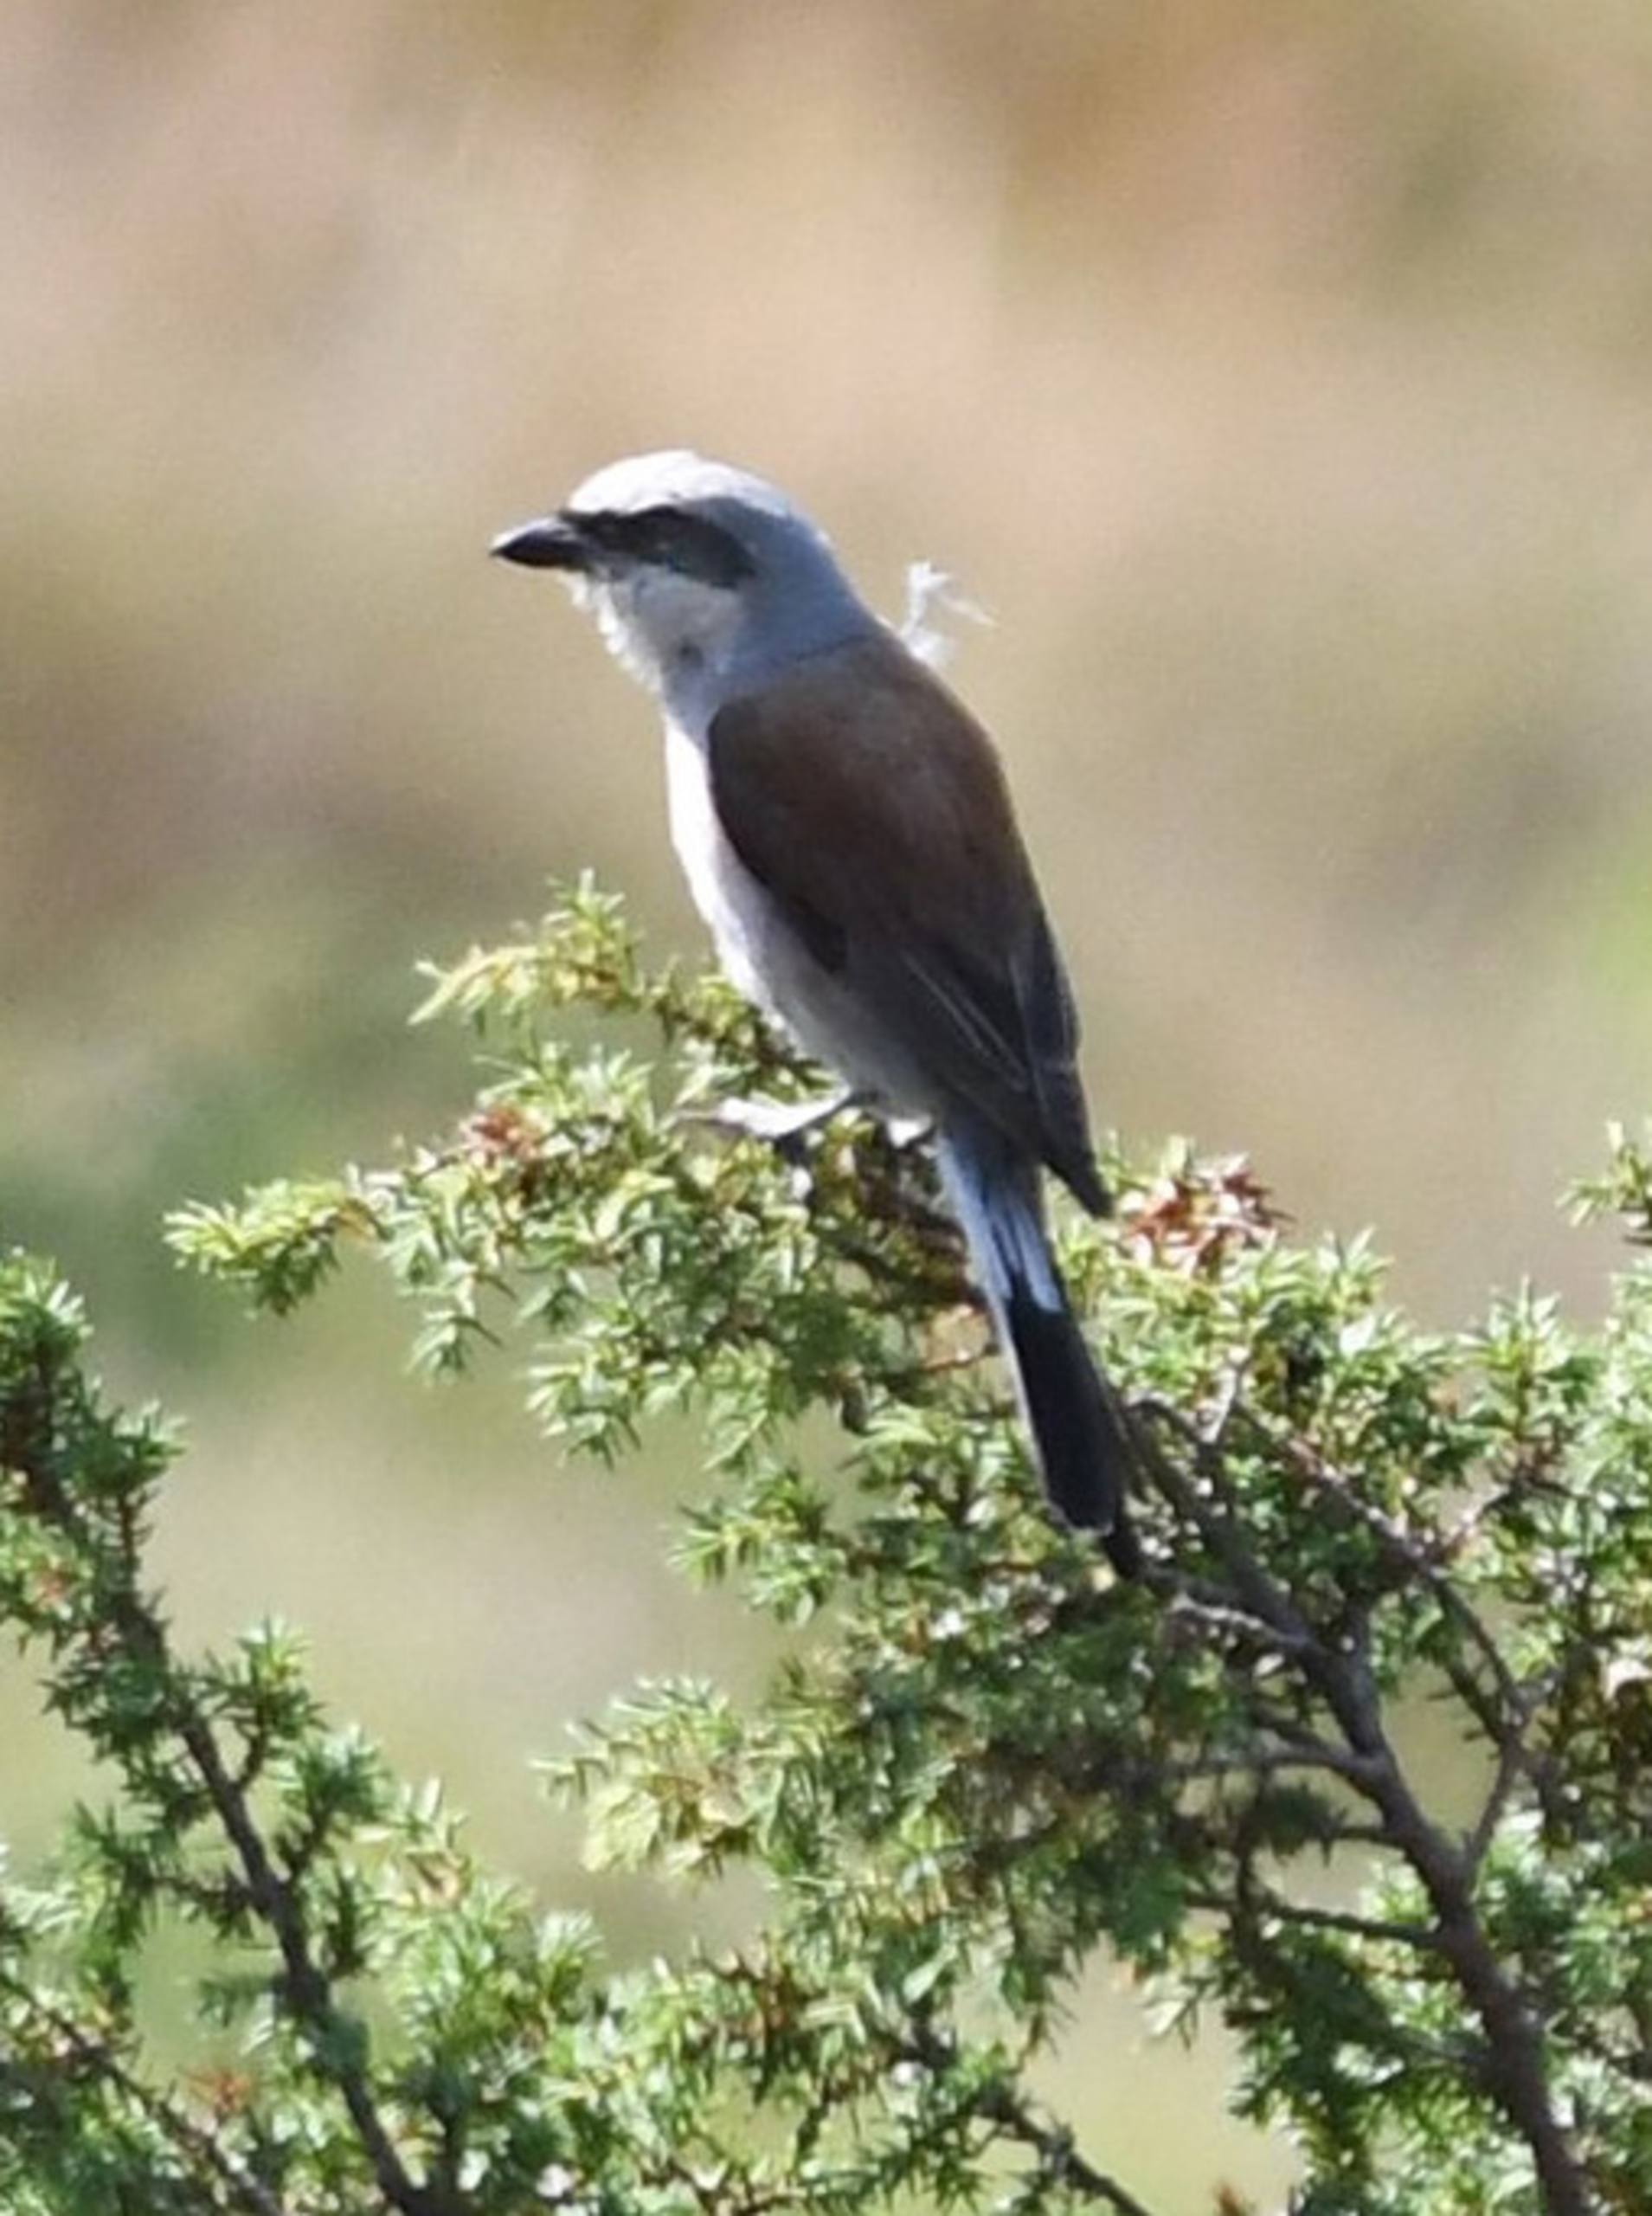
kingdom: Animalia
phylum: Chordata
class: Aves
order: Passeriformes
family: Laniidae
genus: Lanius
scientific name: Lanius collurio
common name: Rødrygget tornskade
